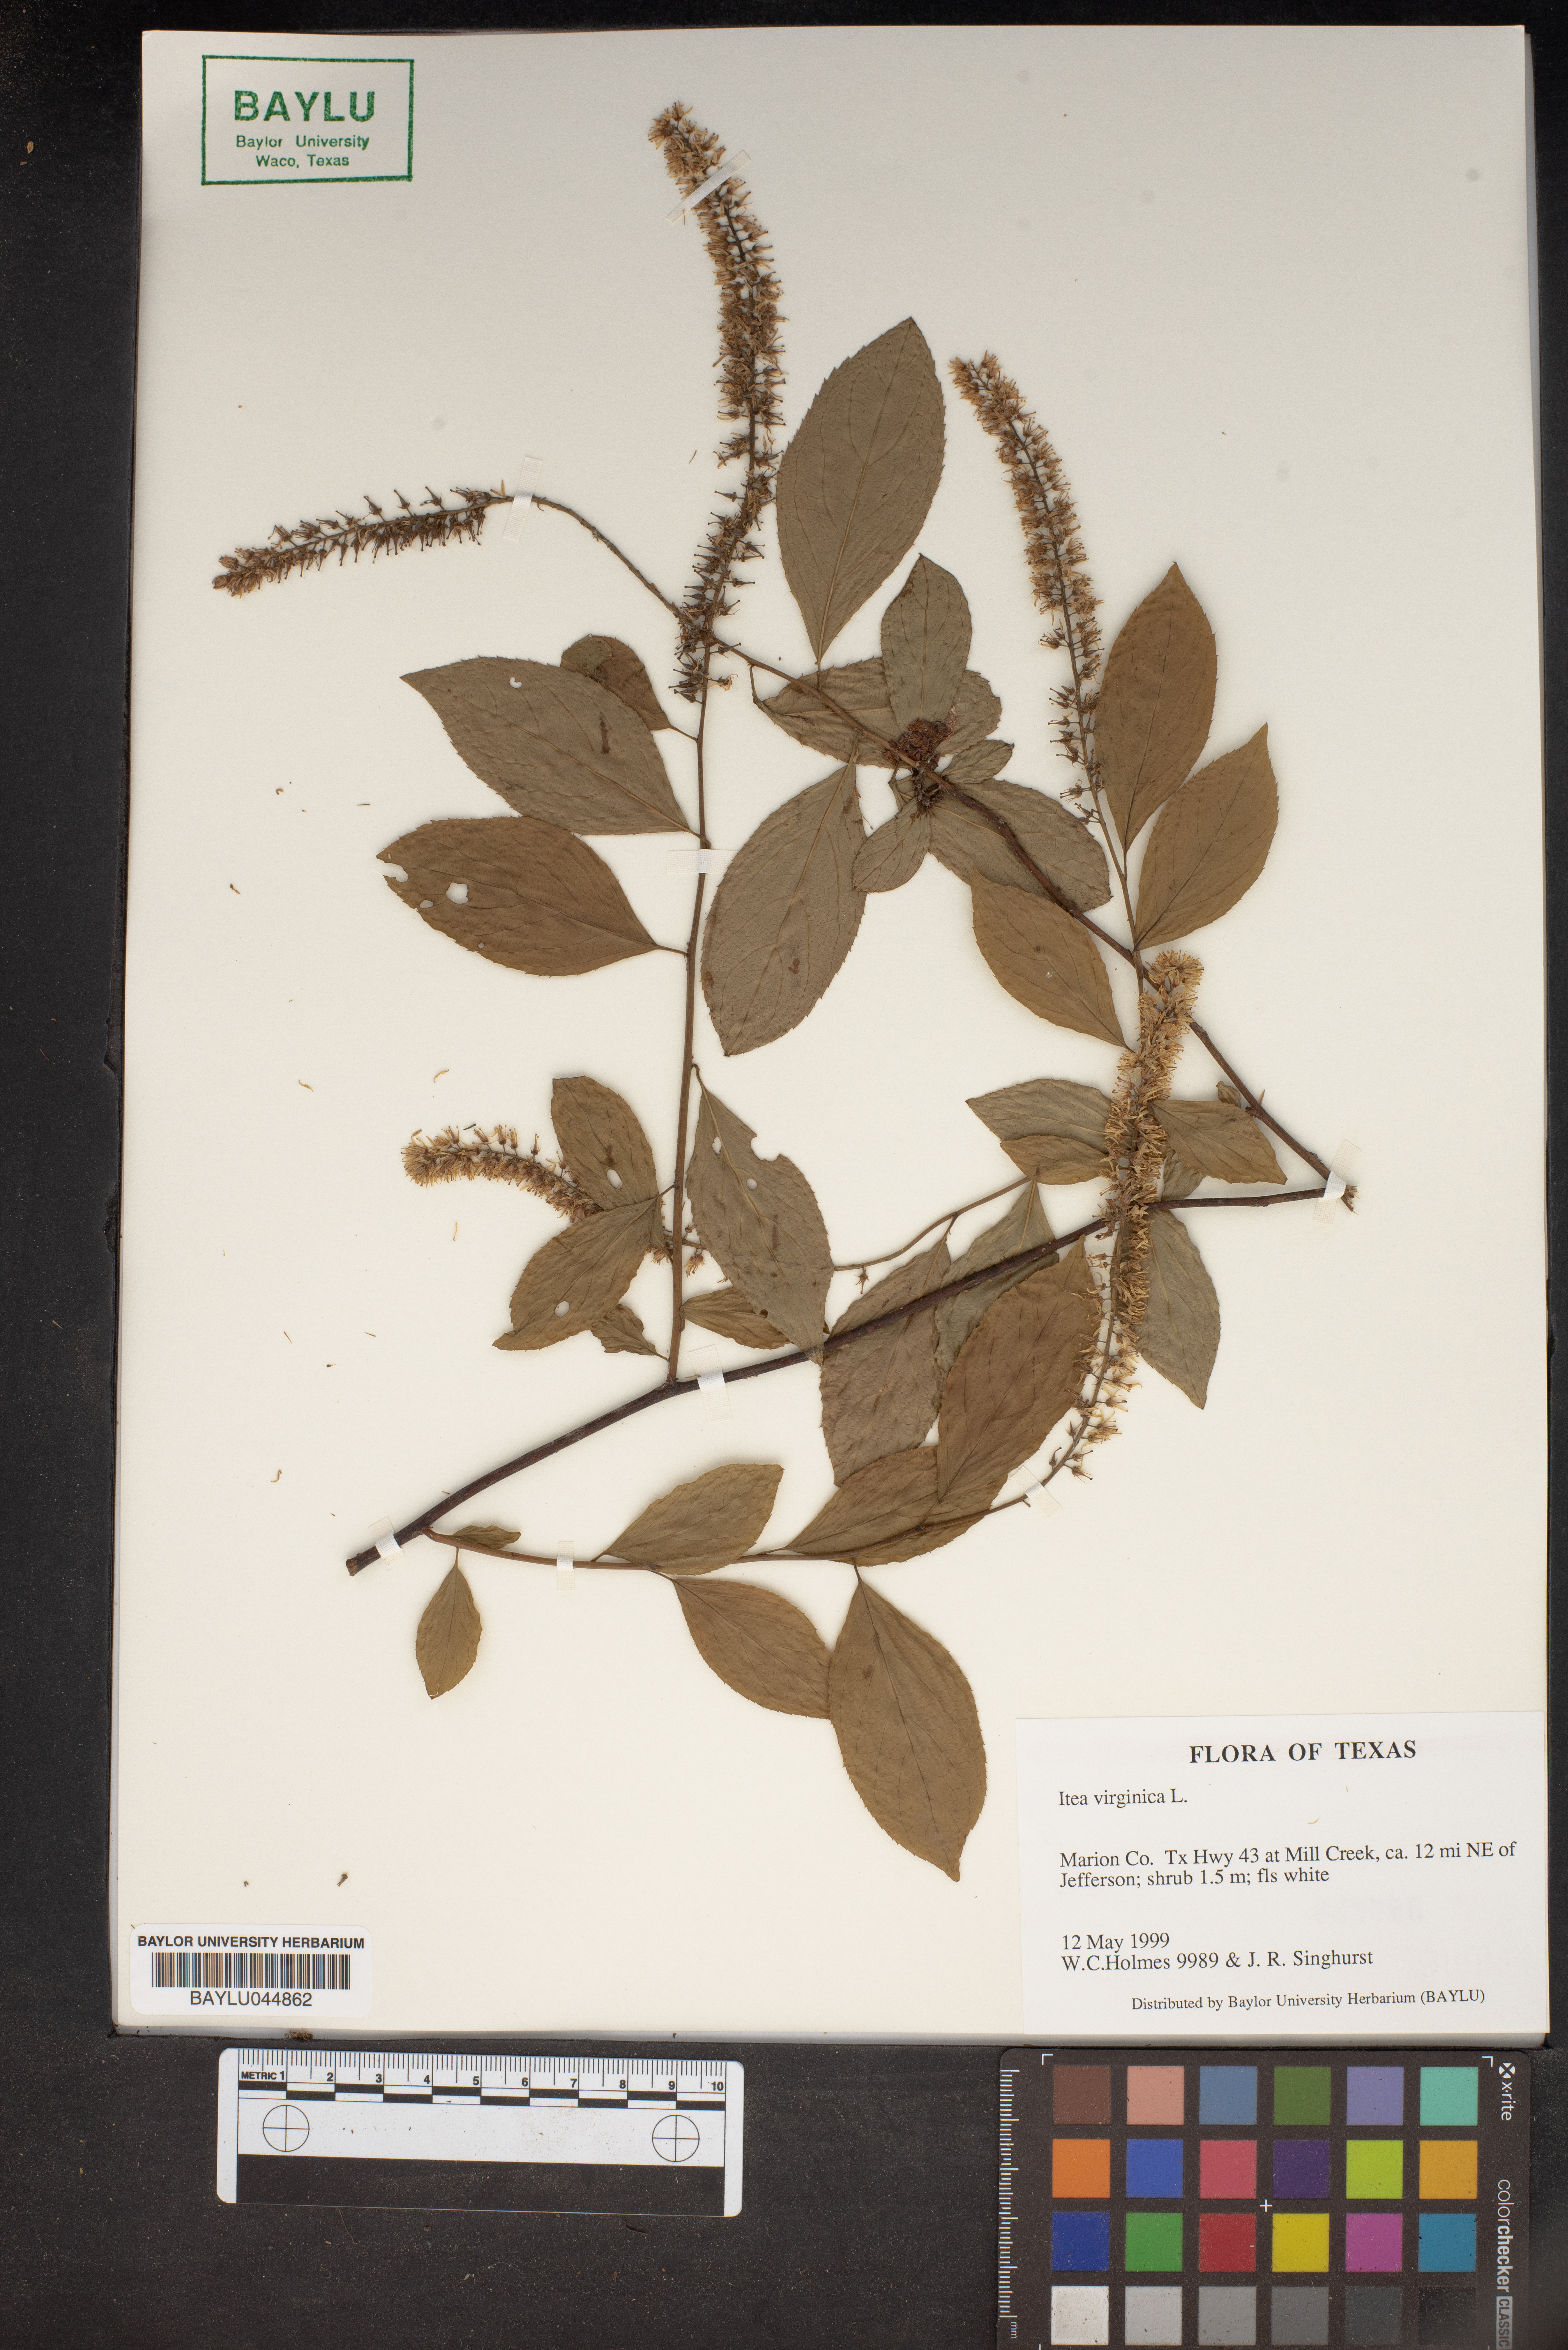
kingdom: Plantae
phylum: Tracheophyta
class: Magnoliopsida
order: Saxifragales
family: Iteaceae
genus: Itea
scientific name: Itea virginica
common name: Sweetspire
